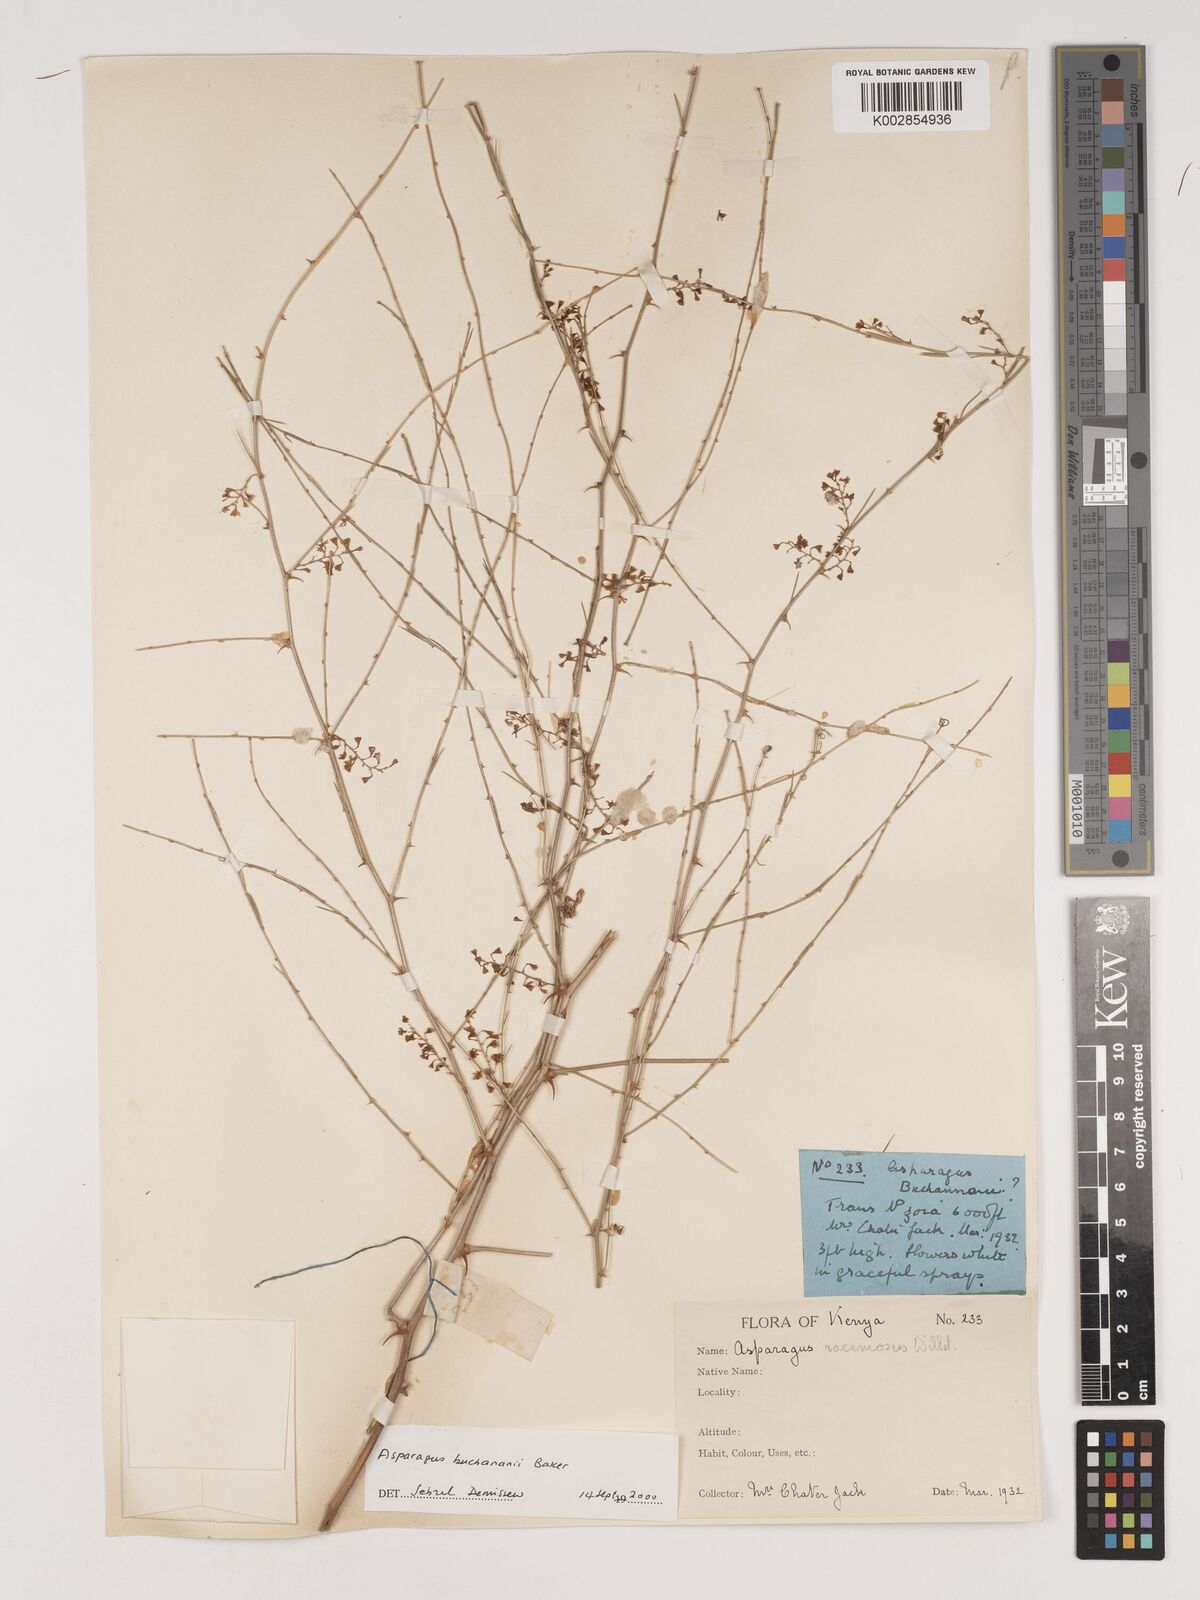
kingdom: Plantae
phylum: Tracheophyta
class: Liliopsida
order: Asparagales
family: Asparagaceae
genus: Asparagus
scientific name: Asparagus buchananii
